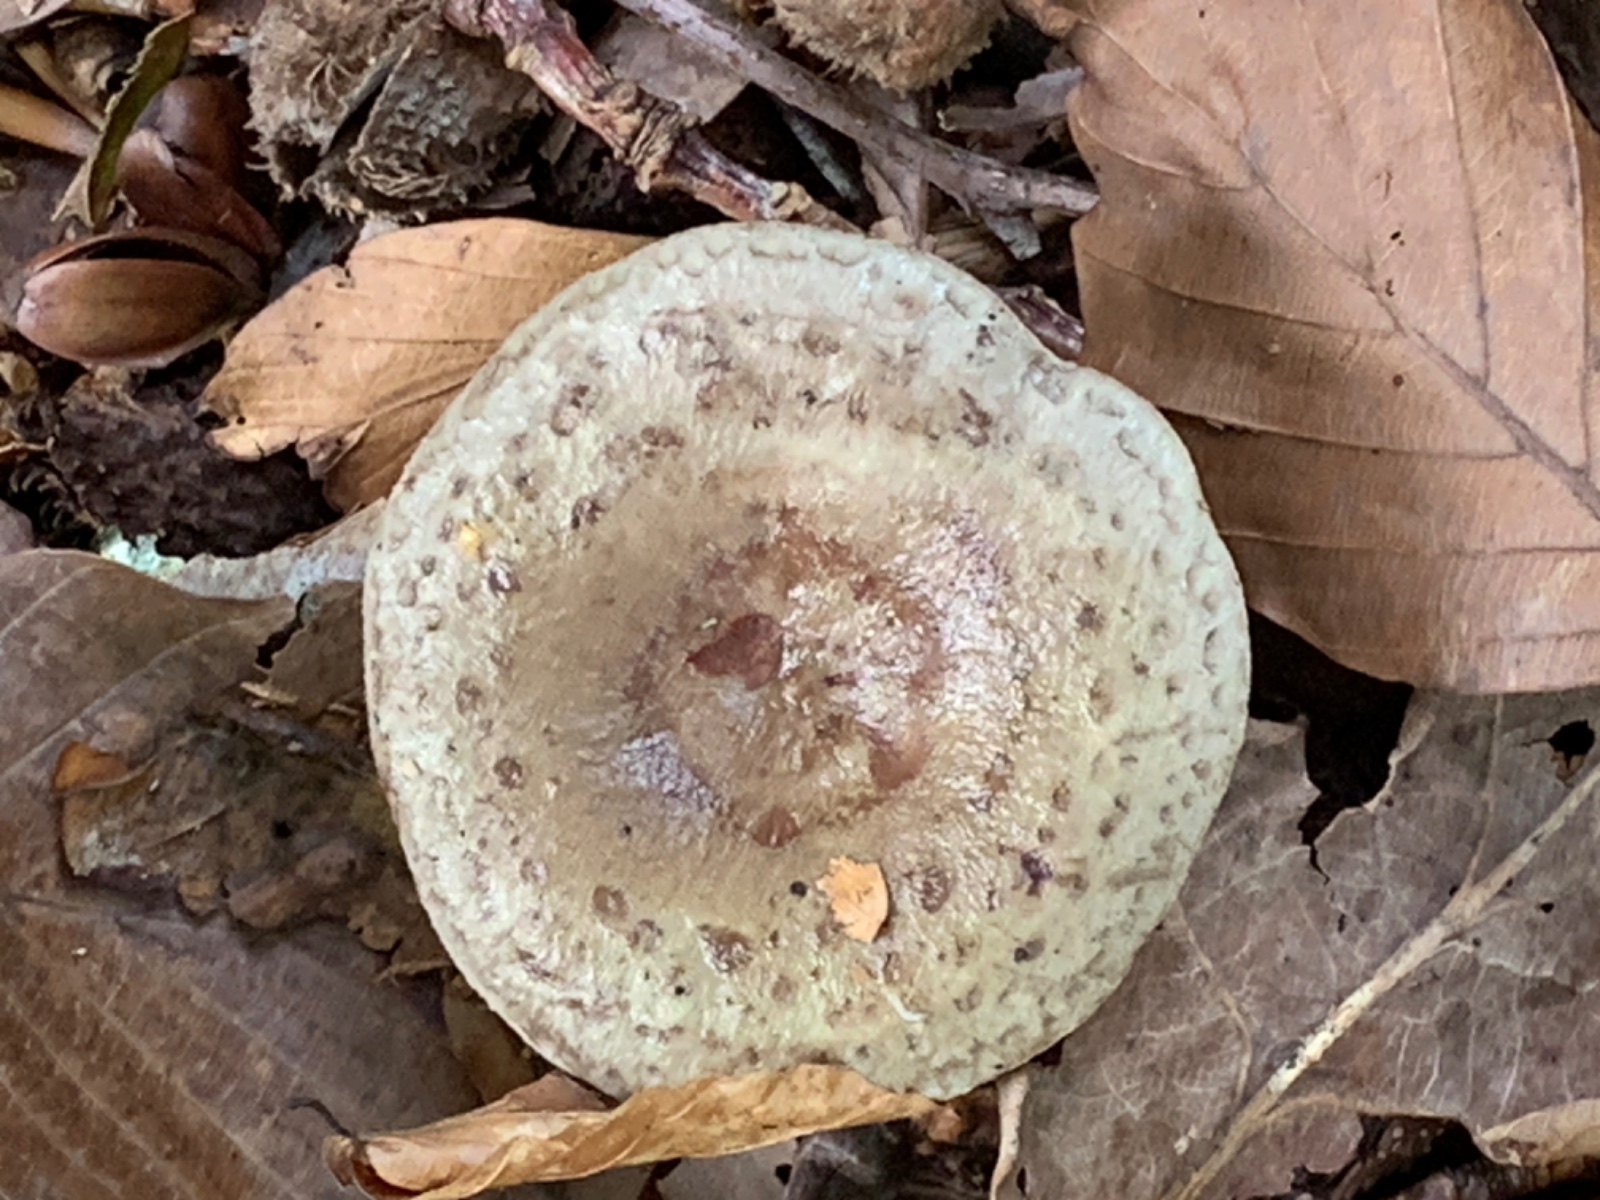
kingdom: Fungi
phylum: Basidiomycota
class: Agaricomycetes
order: Russulales
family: Russulaceae
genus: Lactarius
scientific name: Lactarius blennius
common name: dråbeplettet mælkehat
